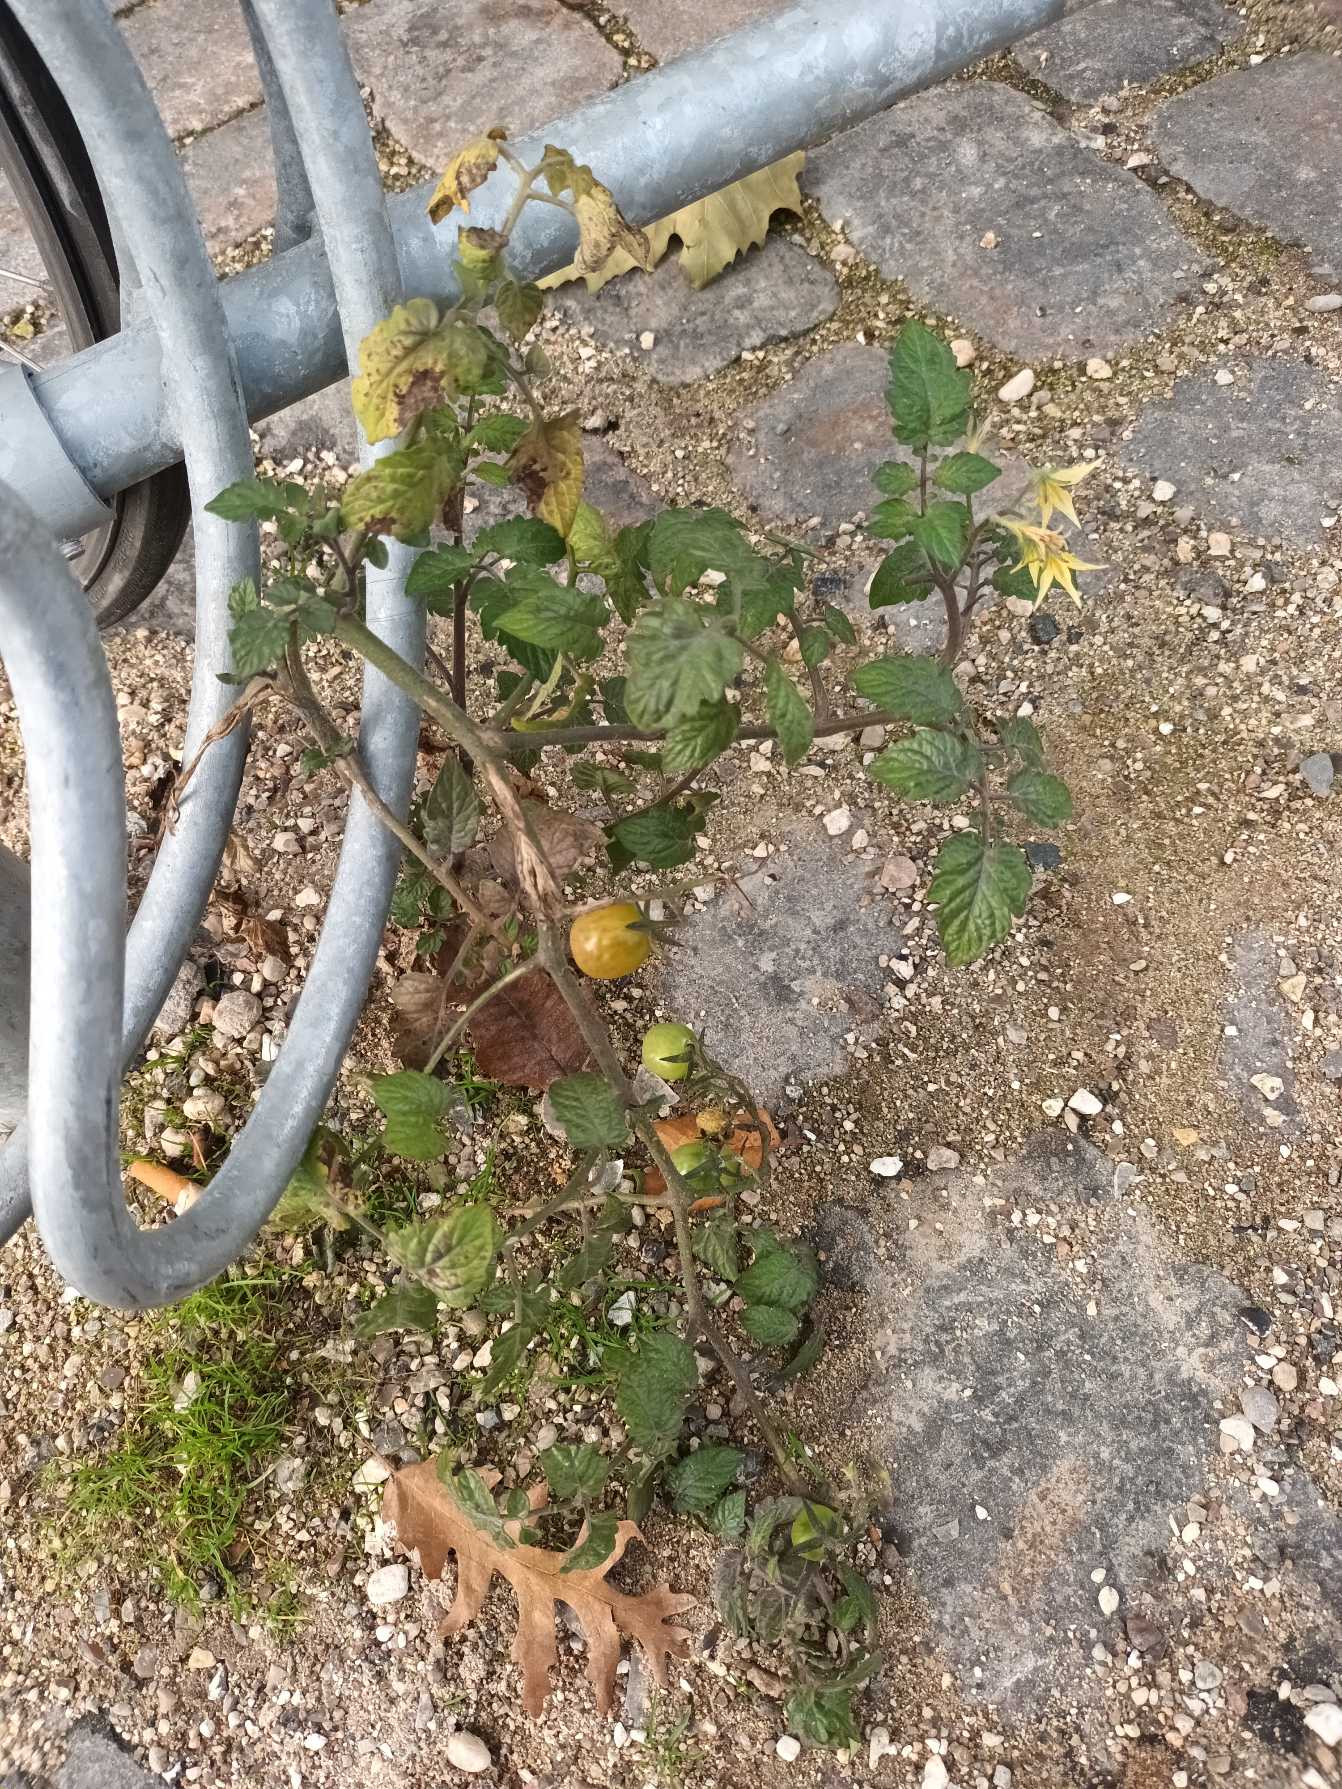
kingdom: Plantae
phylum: Tracheophyta
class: Magnoliopsida
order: Solanales
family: Solanaceae
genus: Solanum
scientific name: Solanum lycopersicum
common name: Tomat
